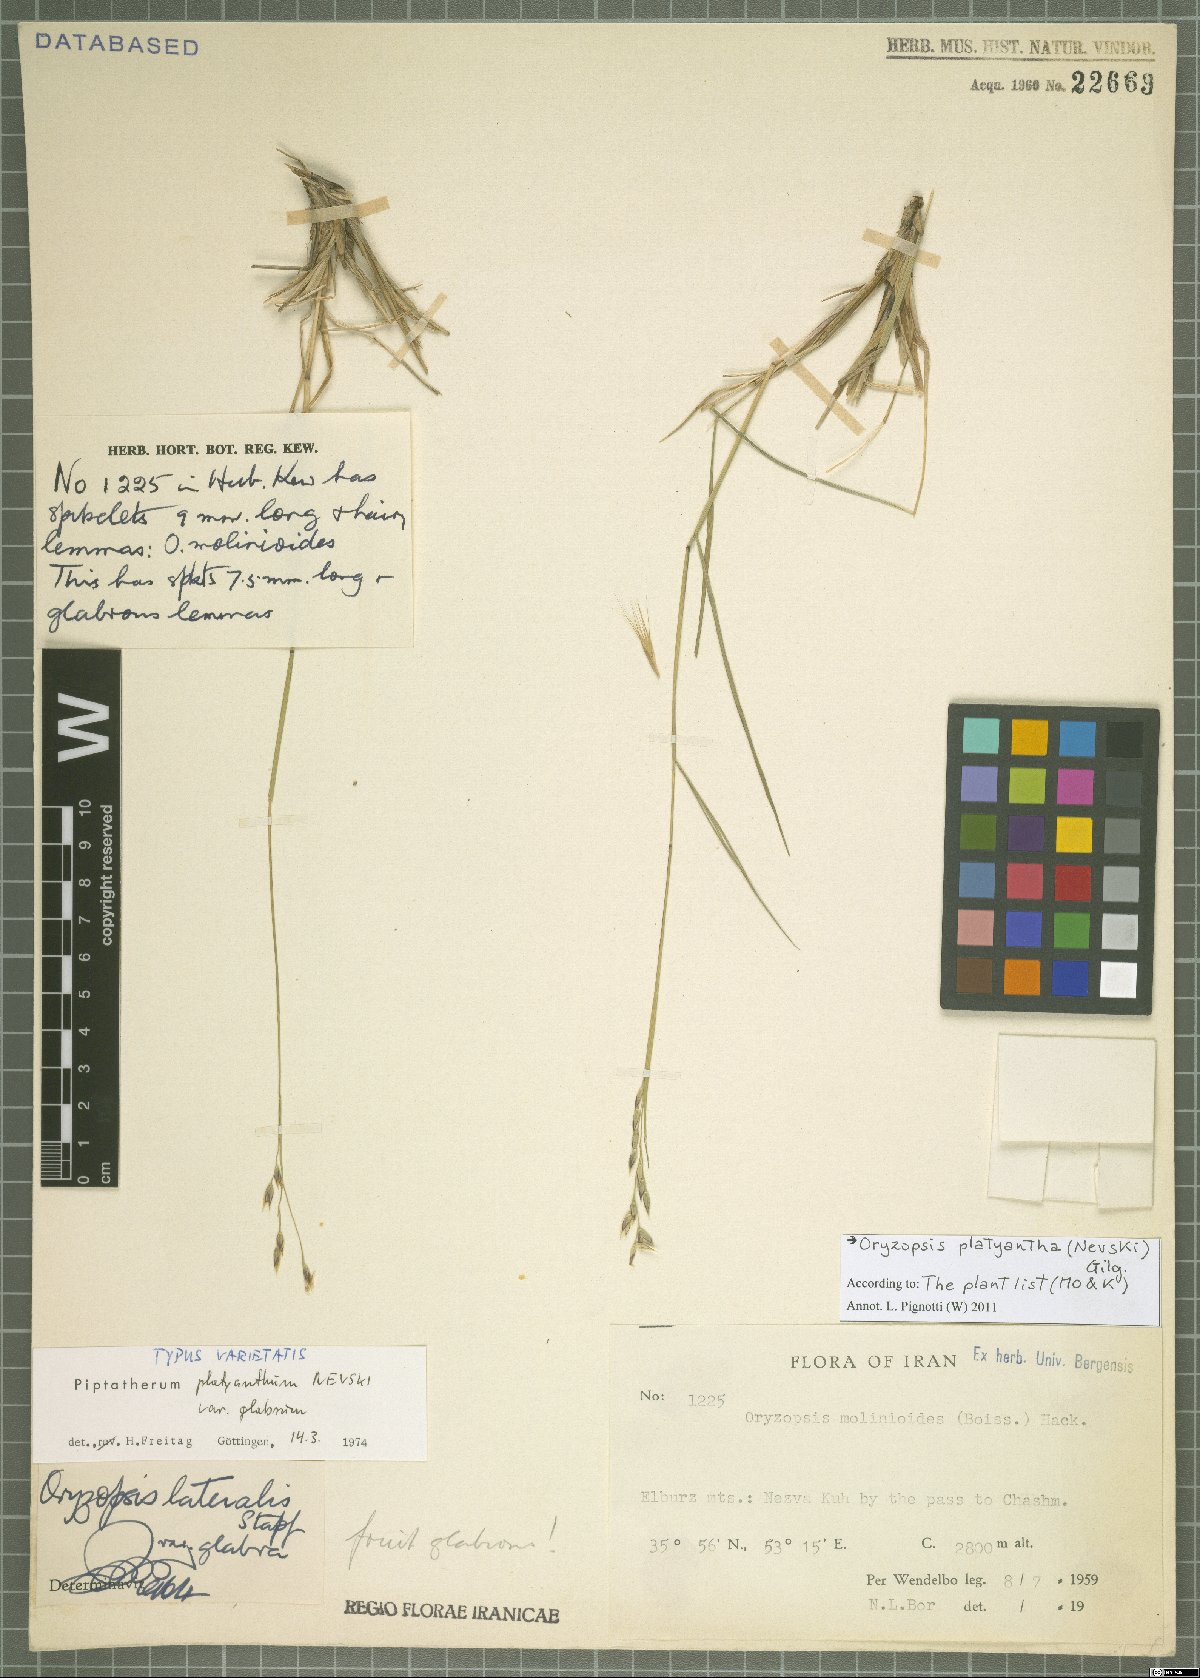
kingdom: Plantae
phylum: Tracheophyta
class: Liliopsida
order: Poales
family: Poaceae
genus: Piptatherum
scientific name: Piptatherum platyanthum
